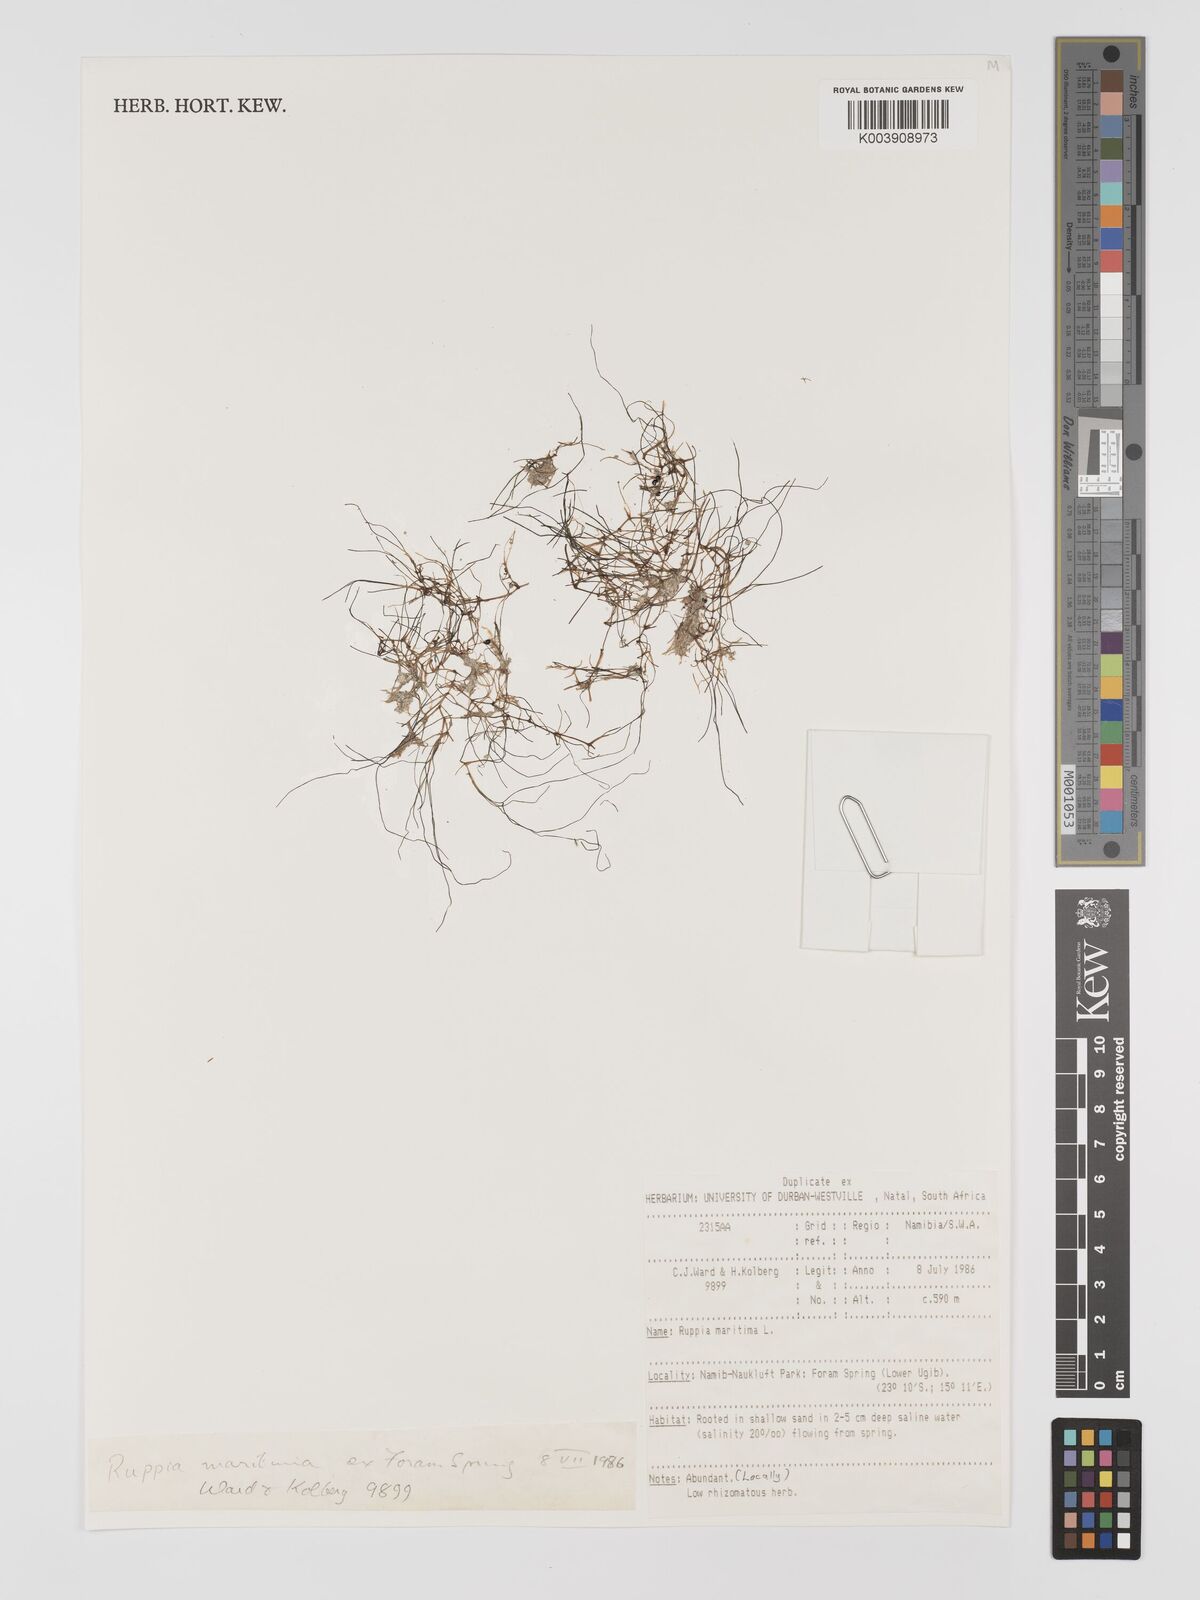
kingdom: Plantae
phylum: Tracheophyta
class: Liliopsida
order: Alismatales
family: Ruppiaceae
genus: Ruppia
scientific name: Ruppia maritima
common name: Beaked tasselweed
